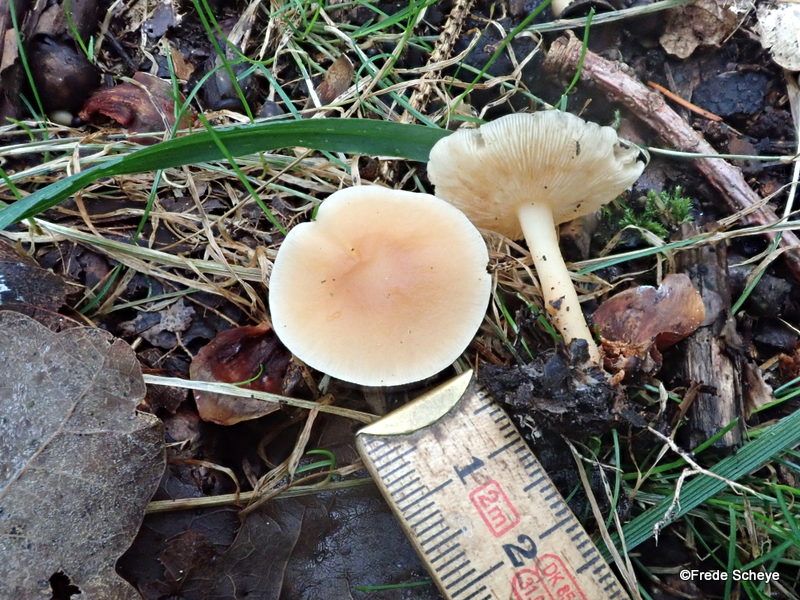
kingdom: Fungi
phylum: Basidiomycota
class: Agaricomycetes
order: Agaricales
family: Omphalotaceae
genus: Gymnopus
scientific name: Gymnopus dryophilus
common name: løv-fladhat
